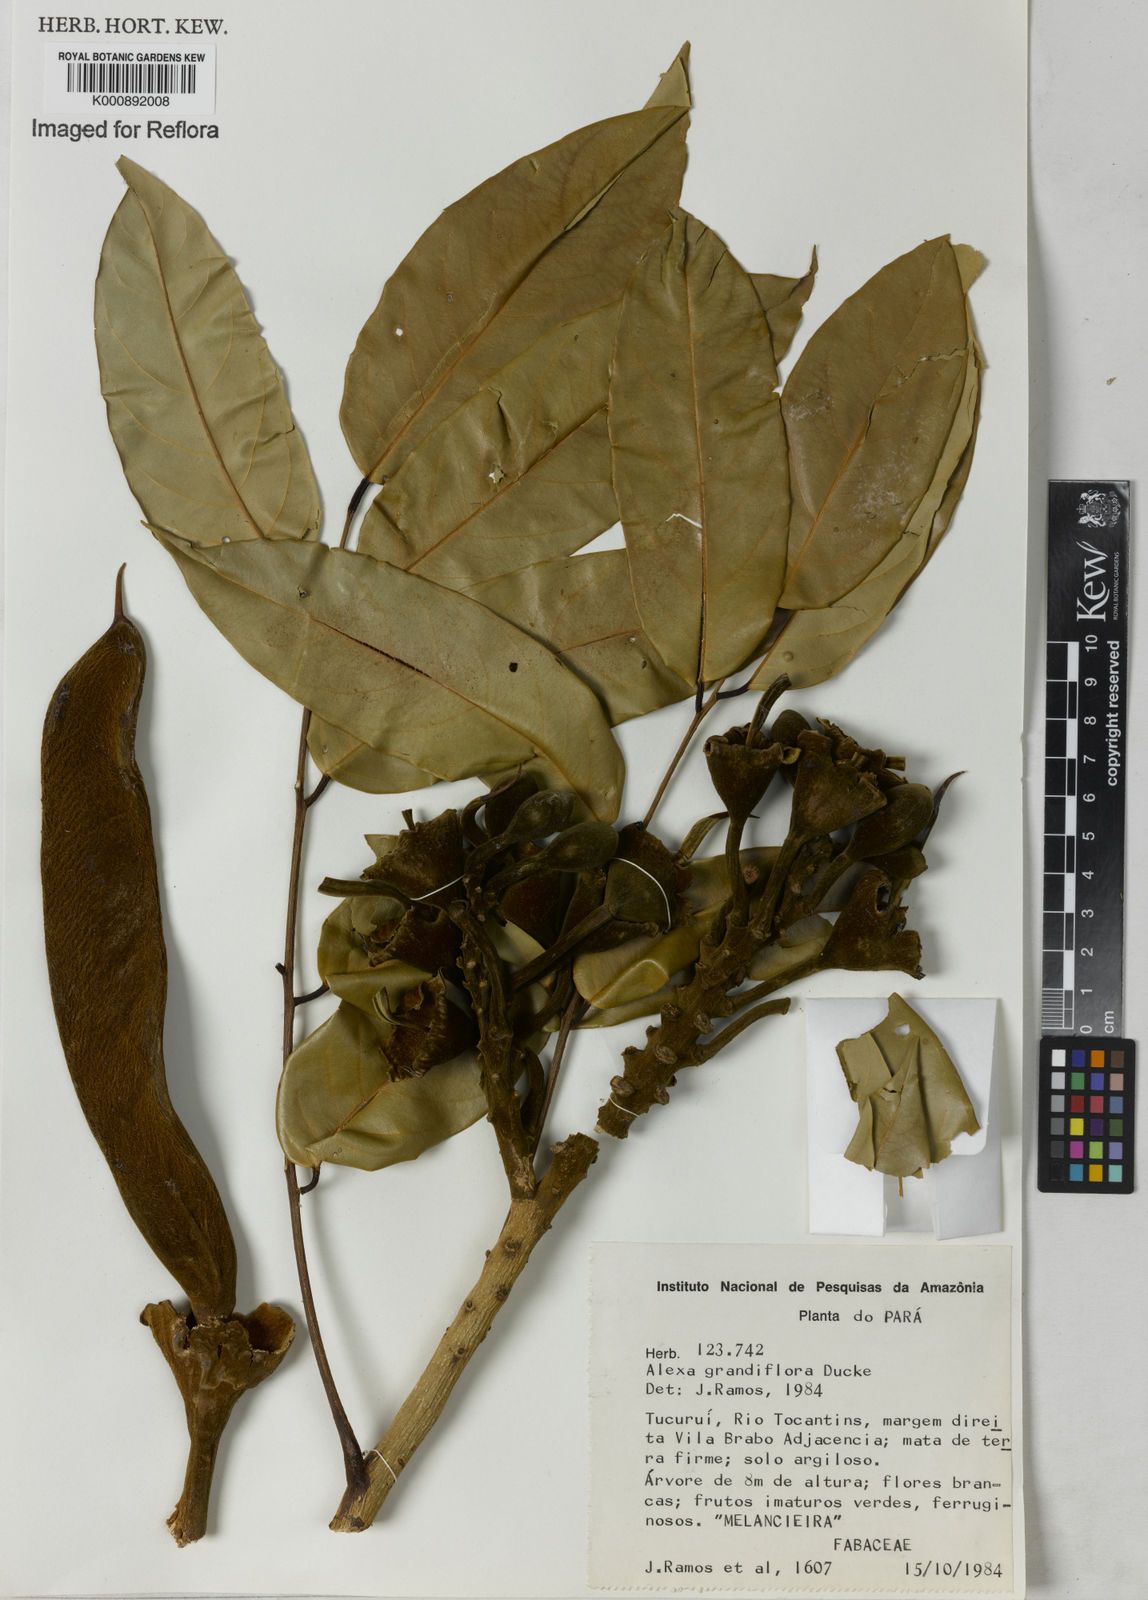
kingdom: Plantae
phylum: Tracheophyta
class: Magnoliopsida
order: Fabales
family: Fabaceae
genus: Alexa
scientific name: Alexa grandiflora
